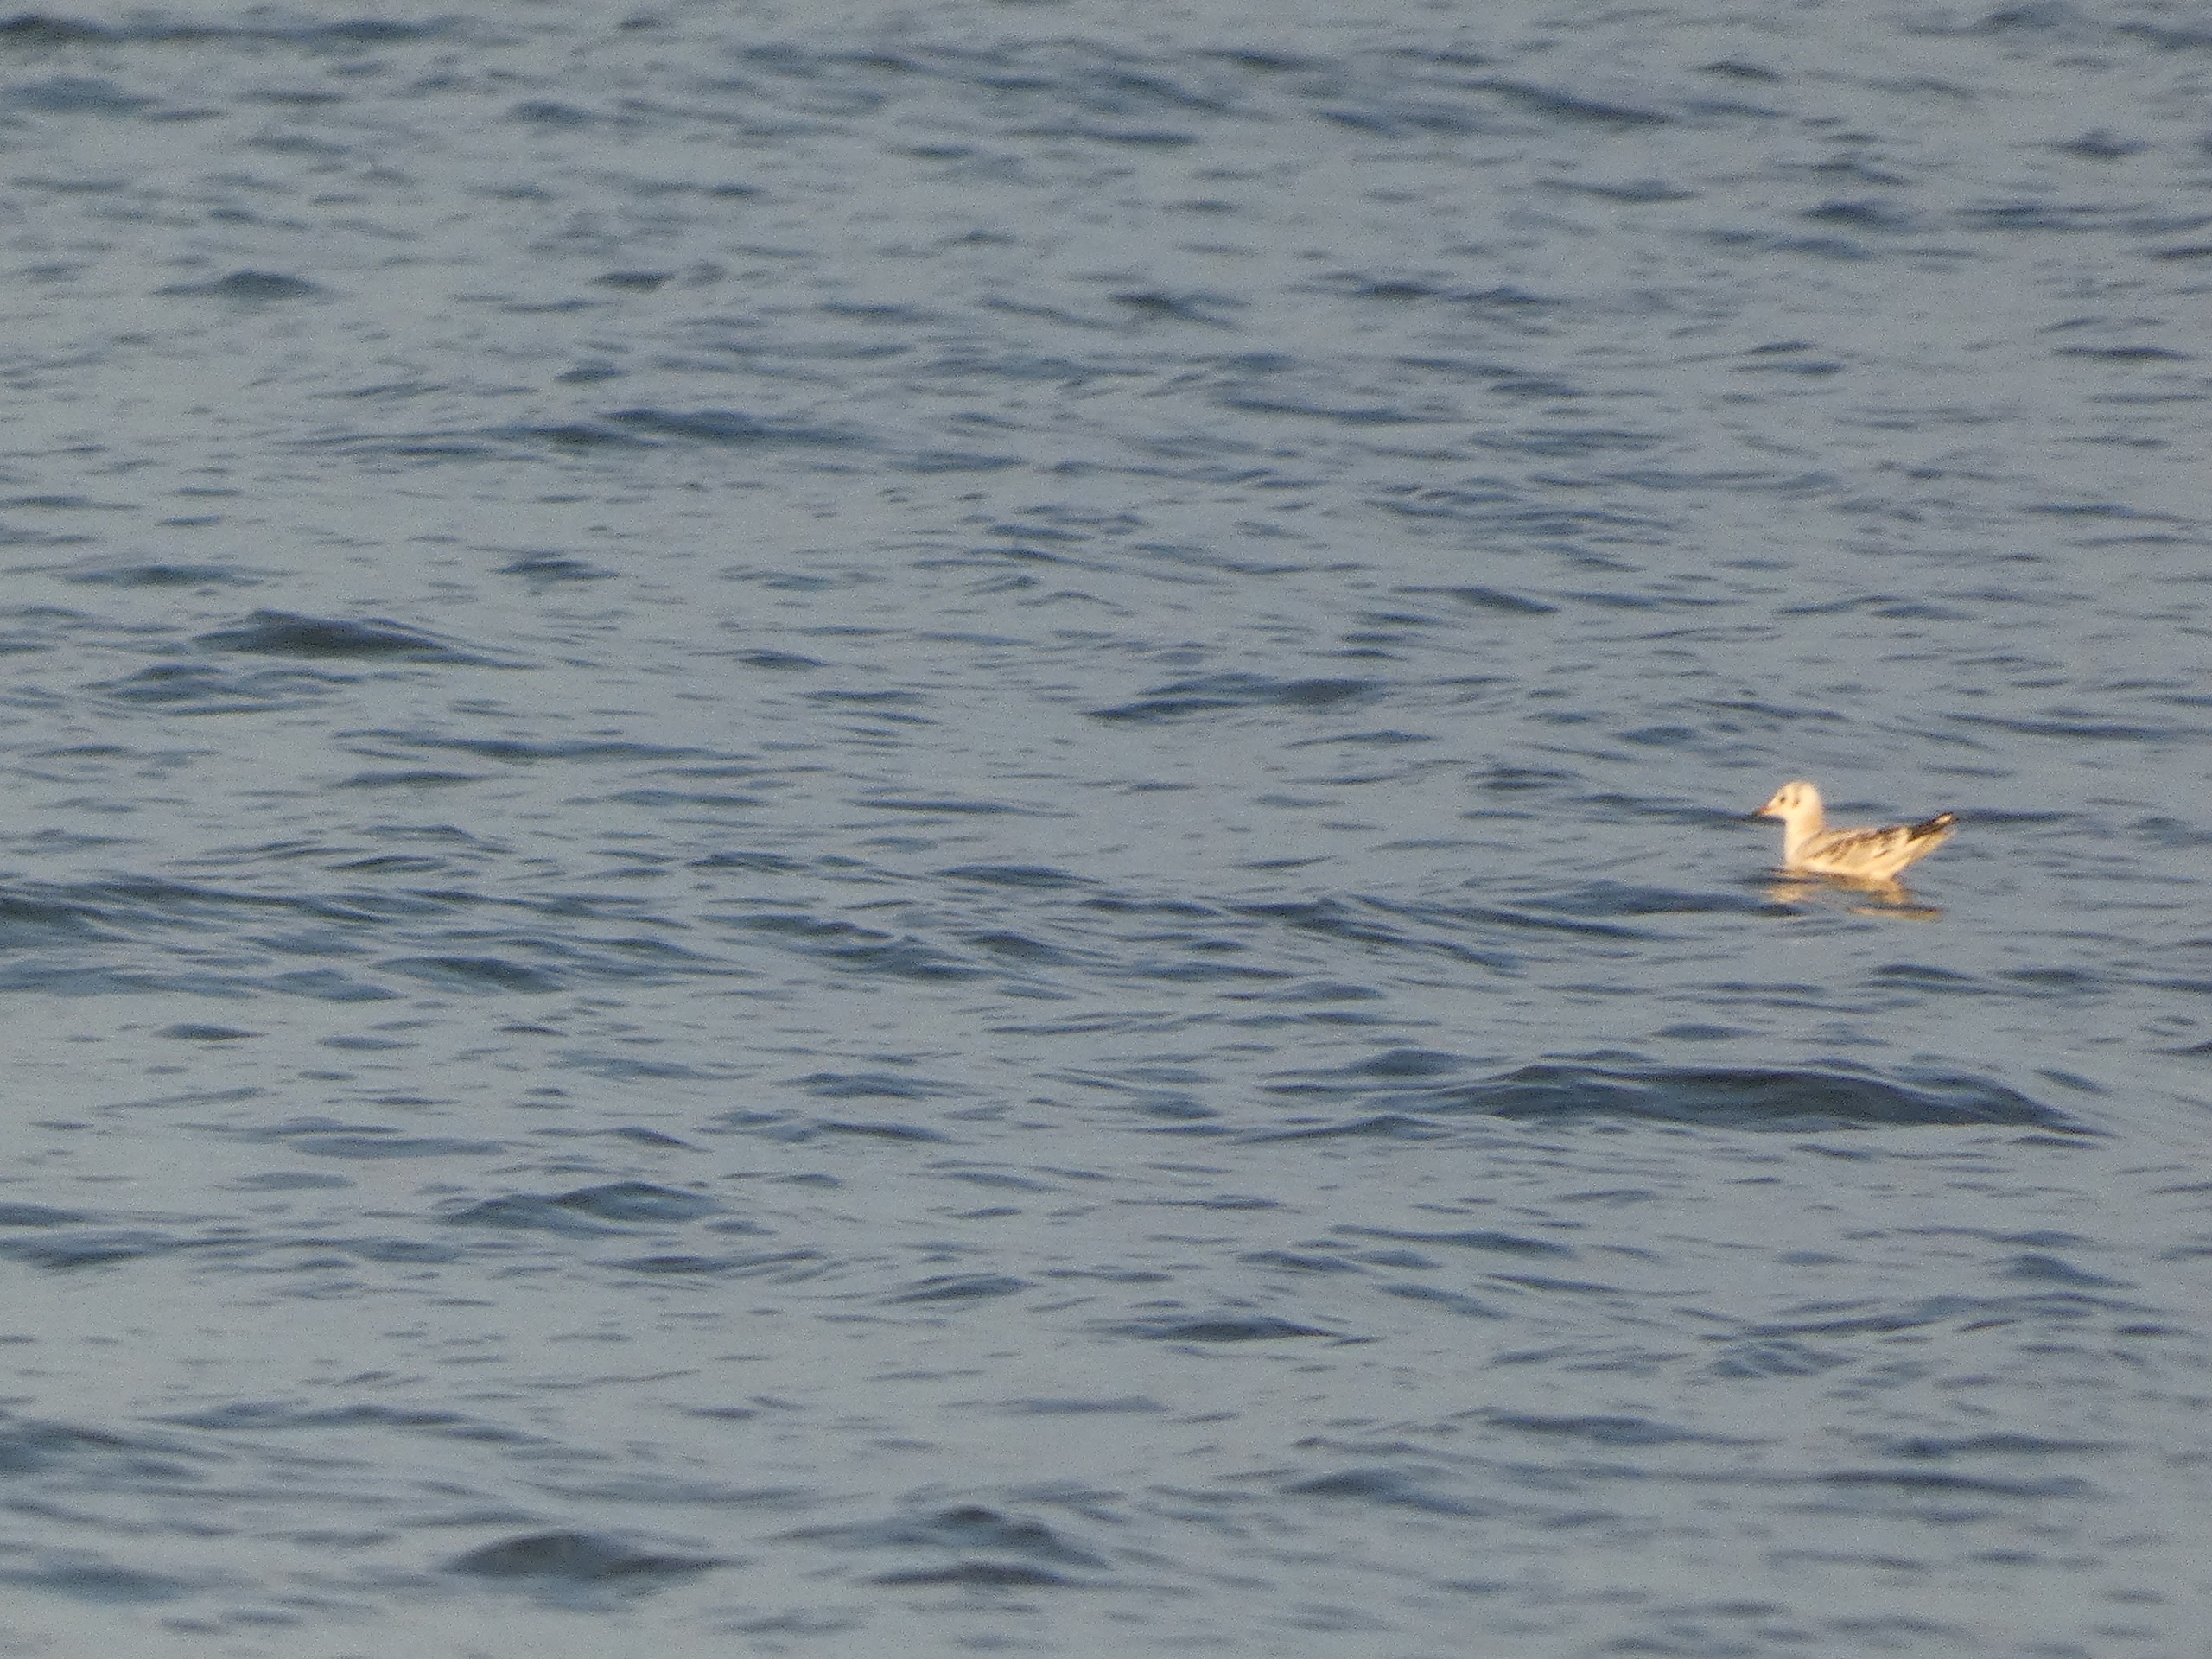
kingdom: Animalia
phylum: Chordata
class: Aves
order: Charadriiformes
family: Laridae
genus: Chroicocephalus
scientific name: Chroicocephalus ridibundus
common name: Hættemåge
